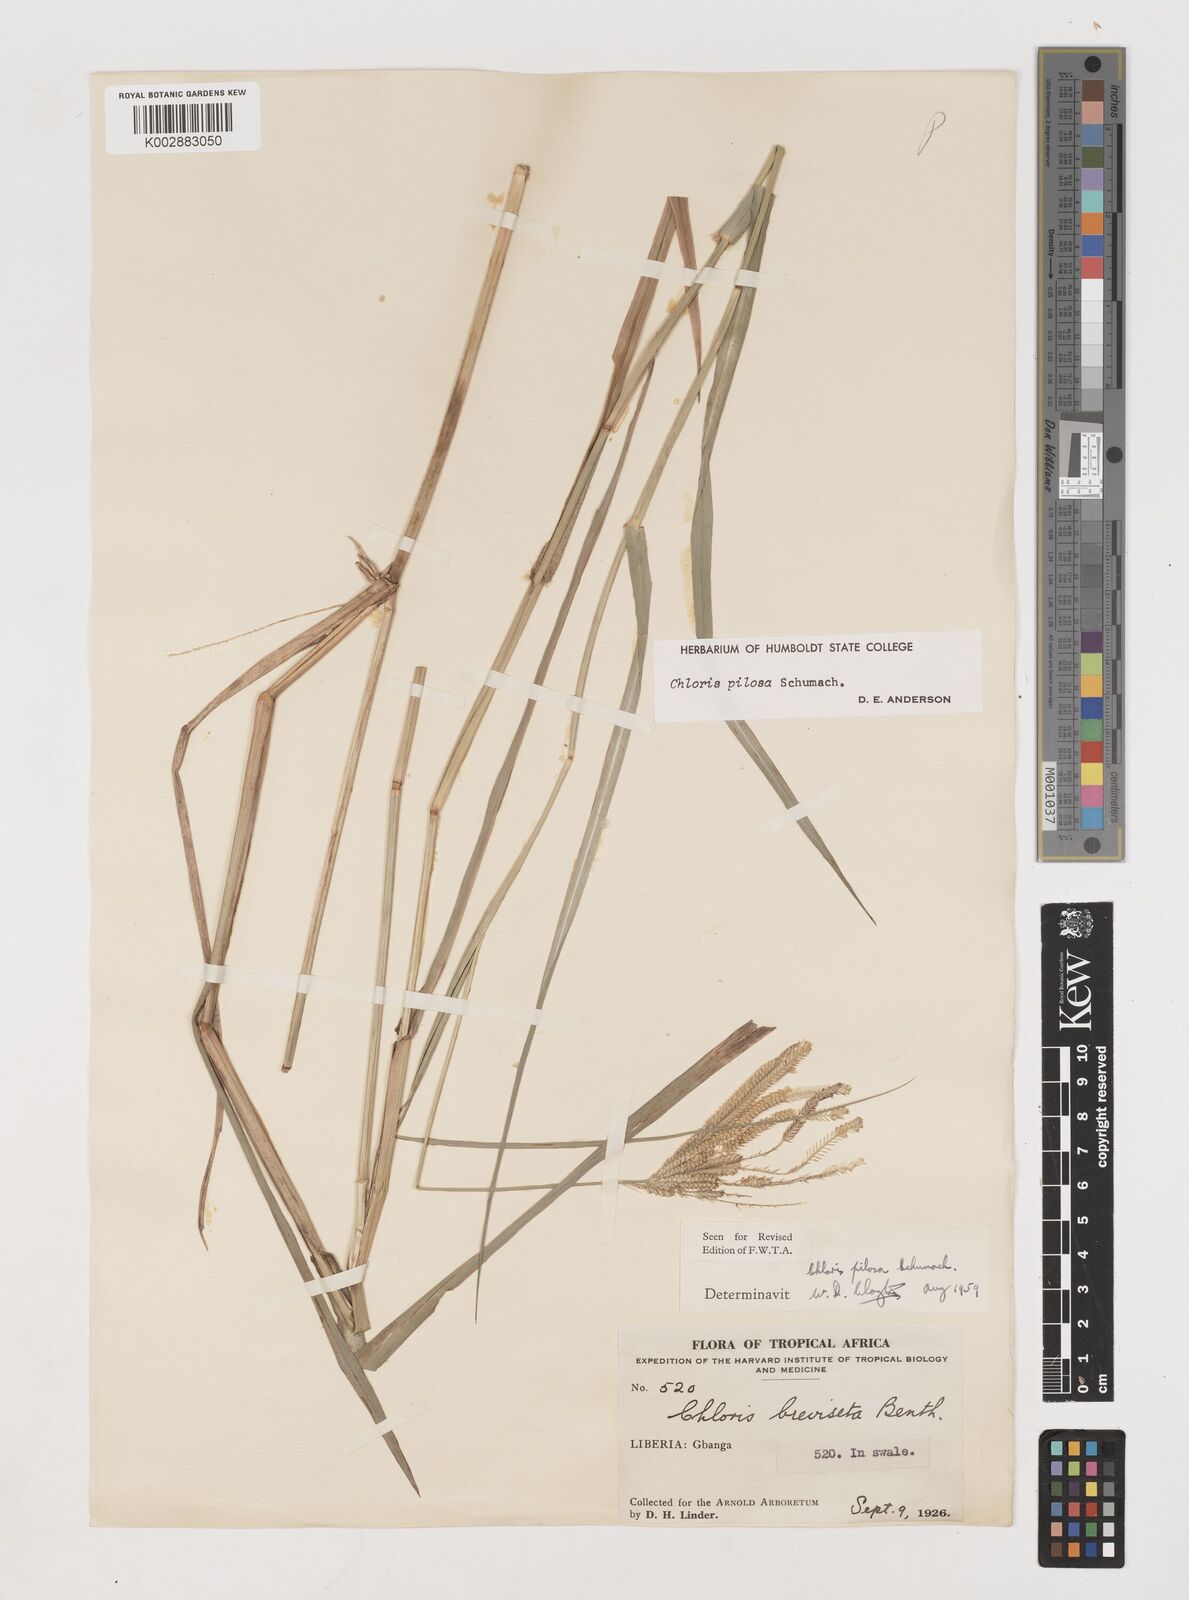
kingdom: Plantae
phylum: Tracheophyta
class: Liliopsida
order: Poales
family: Poaceae
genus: Chloris
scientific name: Chloris pilosa
